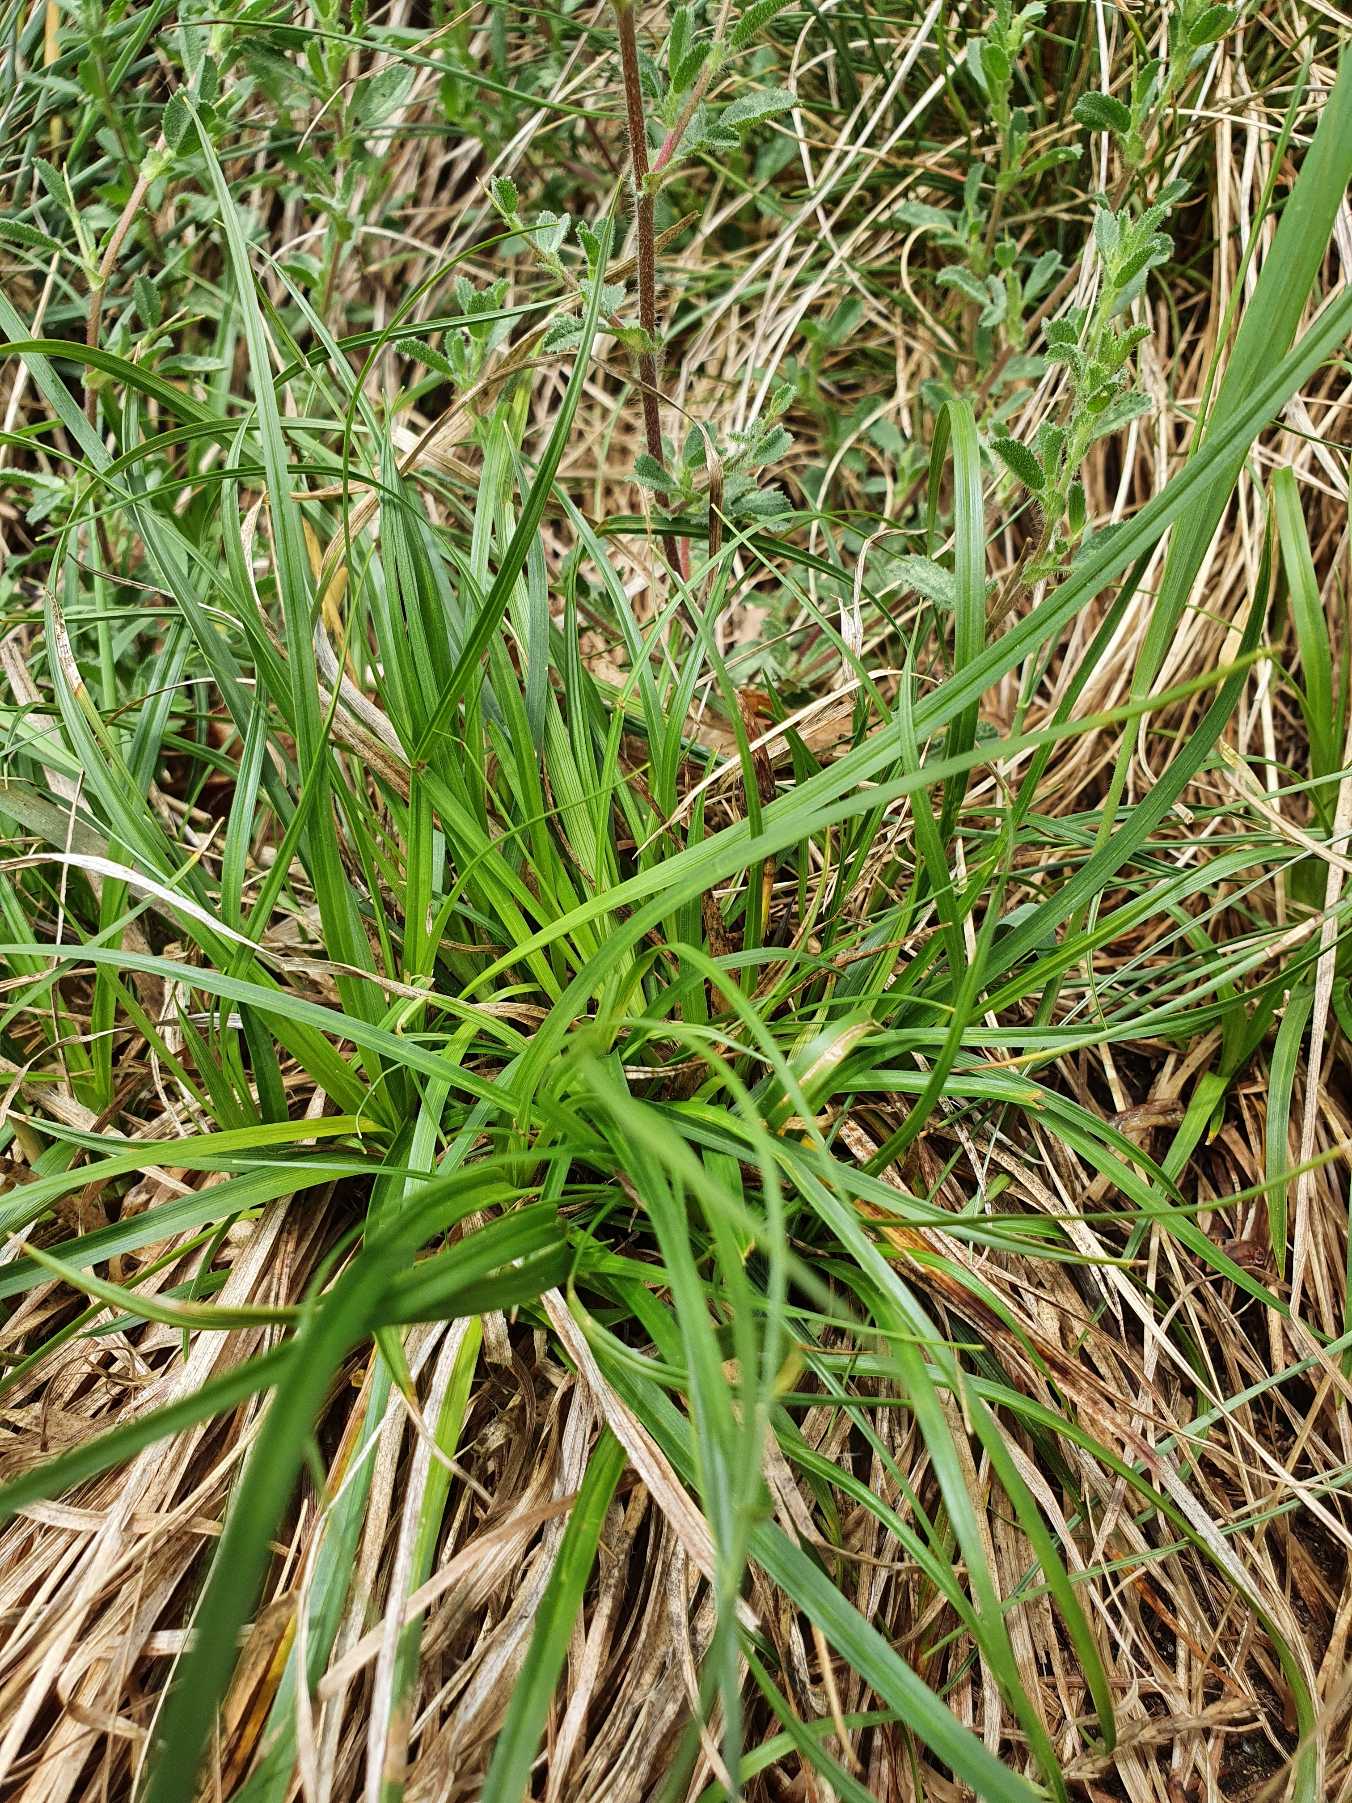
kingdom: Plantae
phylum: Tracheophyta
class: Liliopsida
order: Poales
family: Cyperaceae
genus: Carex
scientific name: Carex caryophyllea
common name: Vår-star
